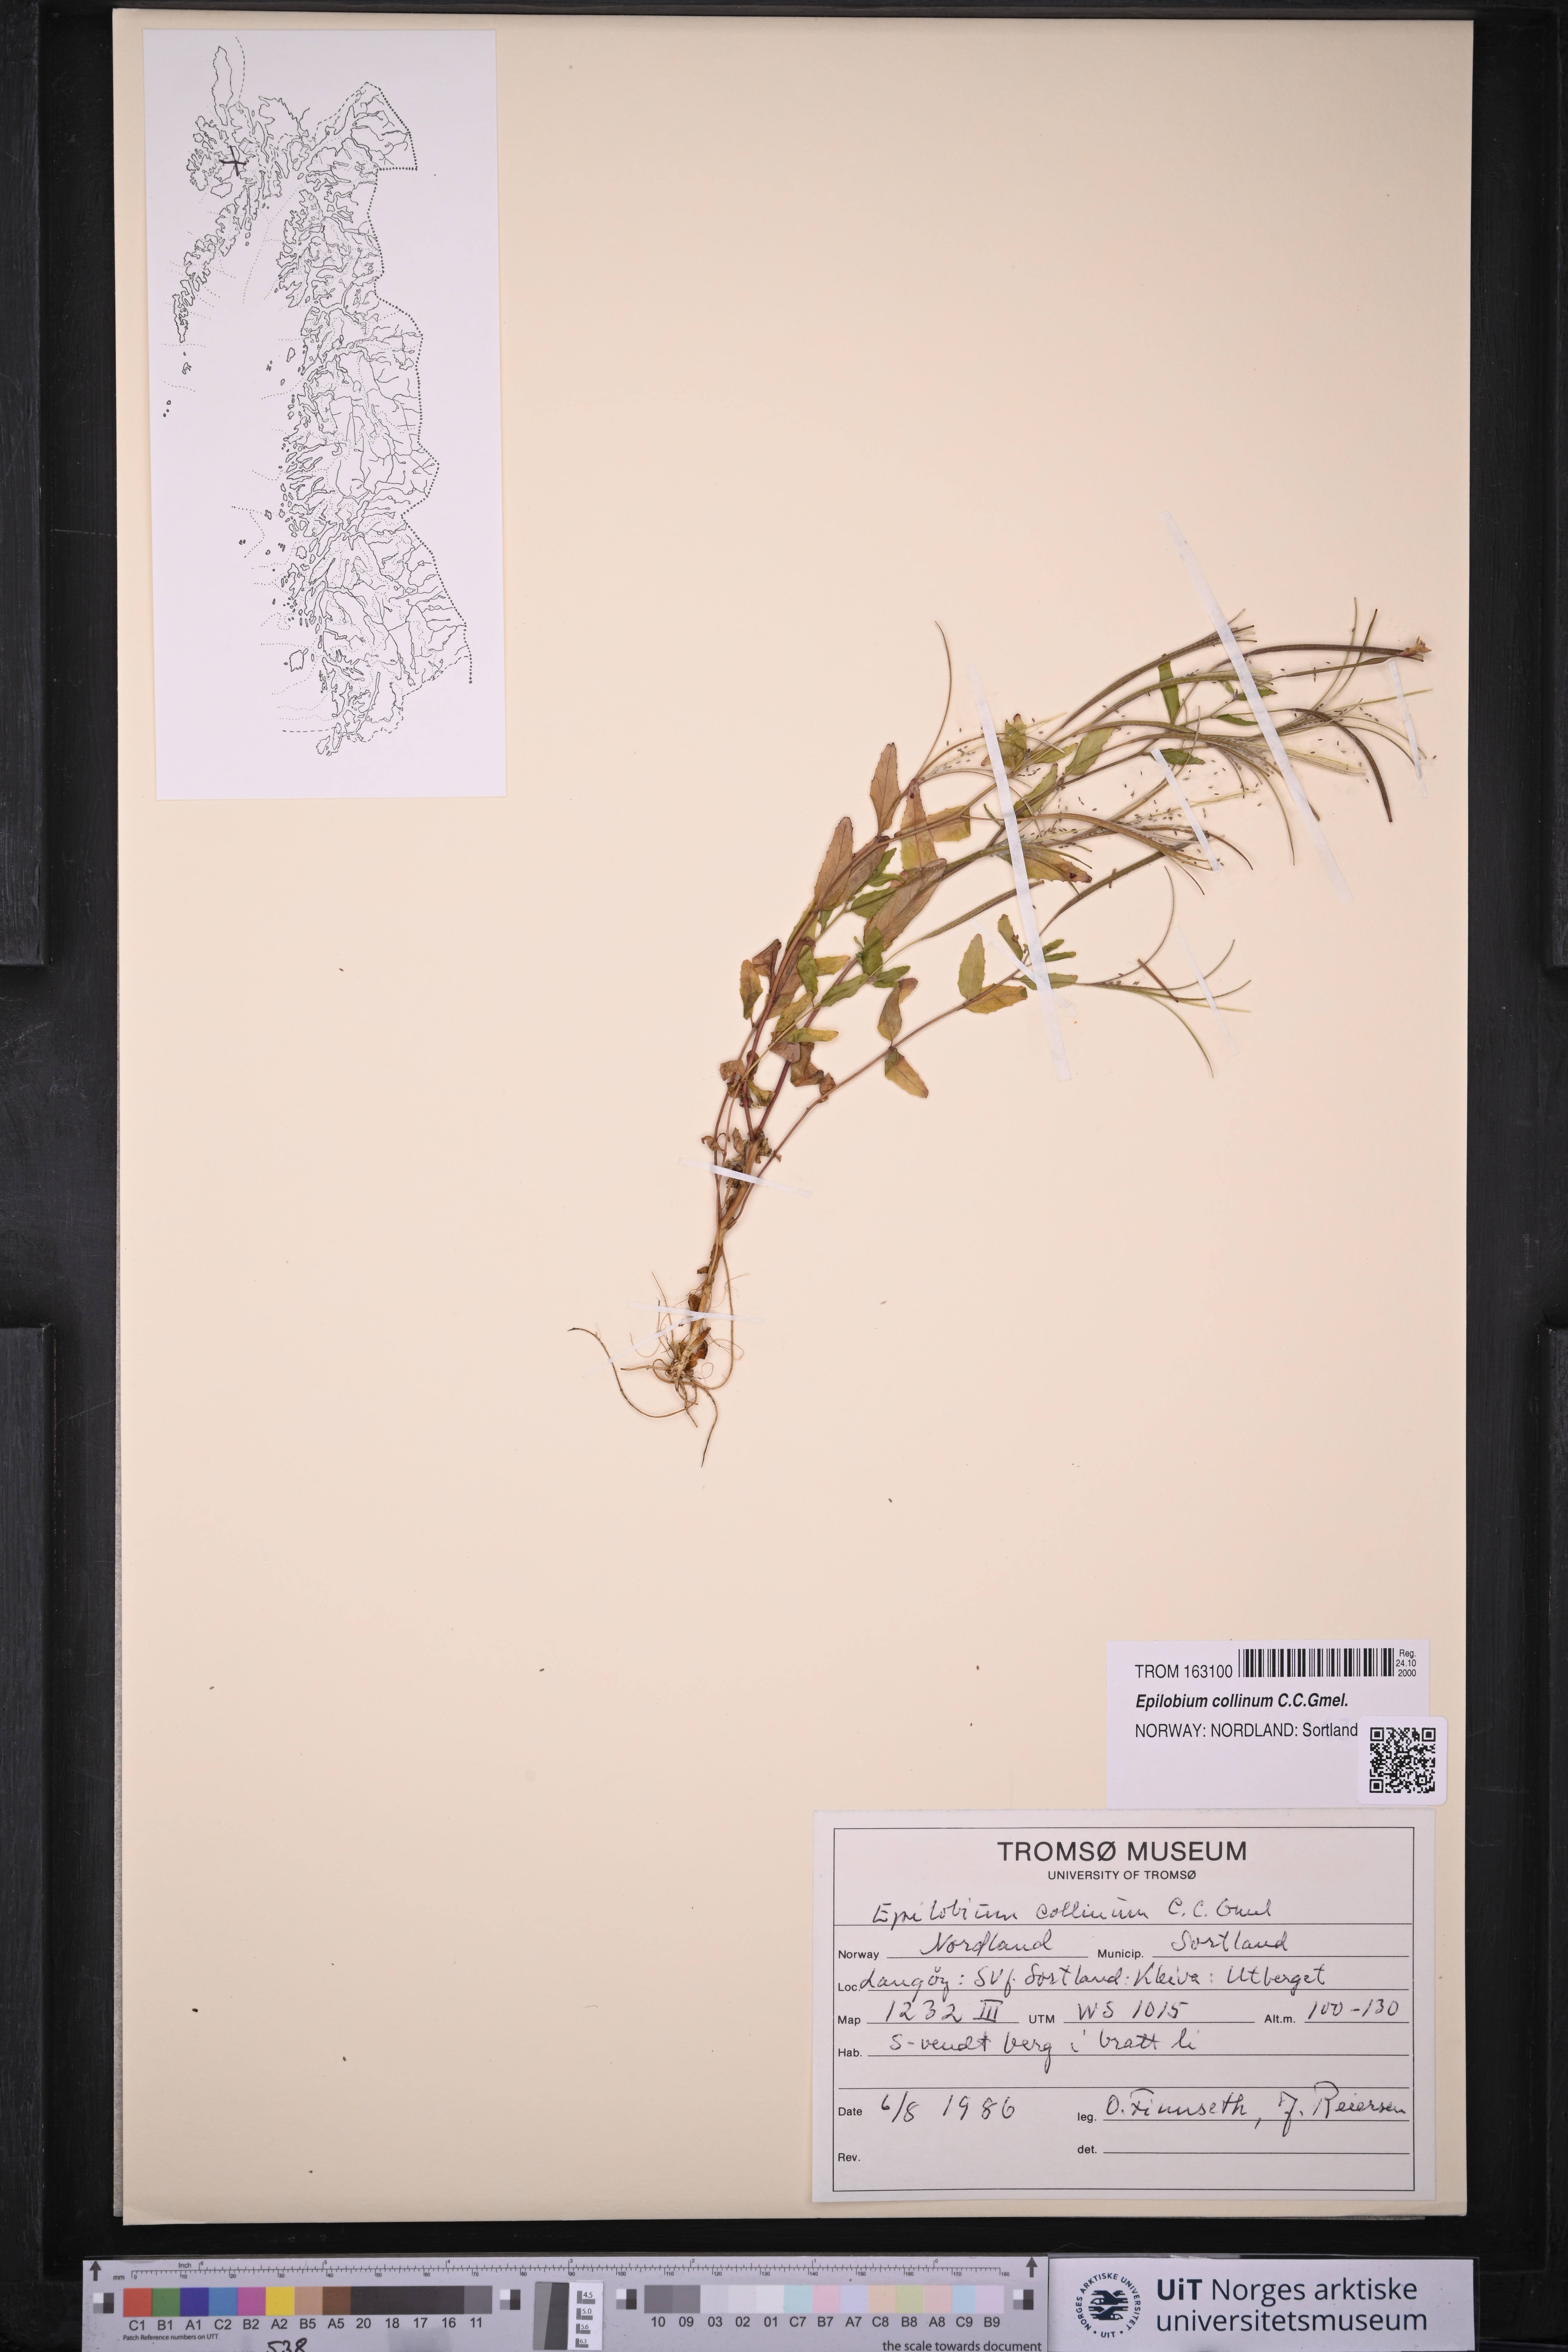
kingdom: Plantae
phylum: Tracheophyta
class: Magnoliopsida
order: Myrtales
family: Onagraceae
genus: Epilobium
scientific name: Epilobium collinum
